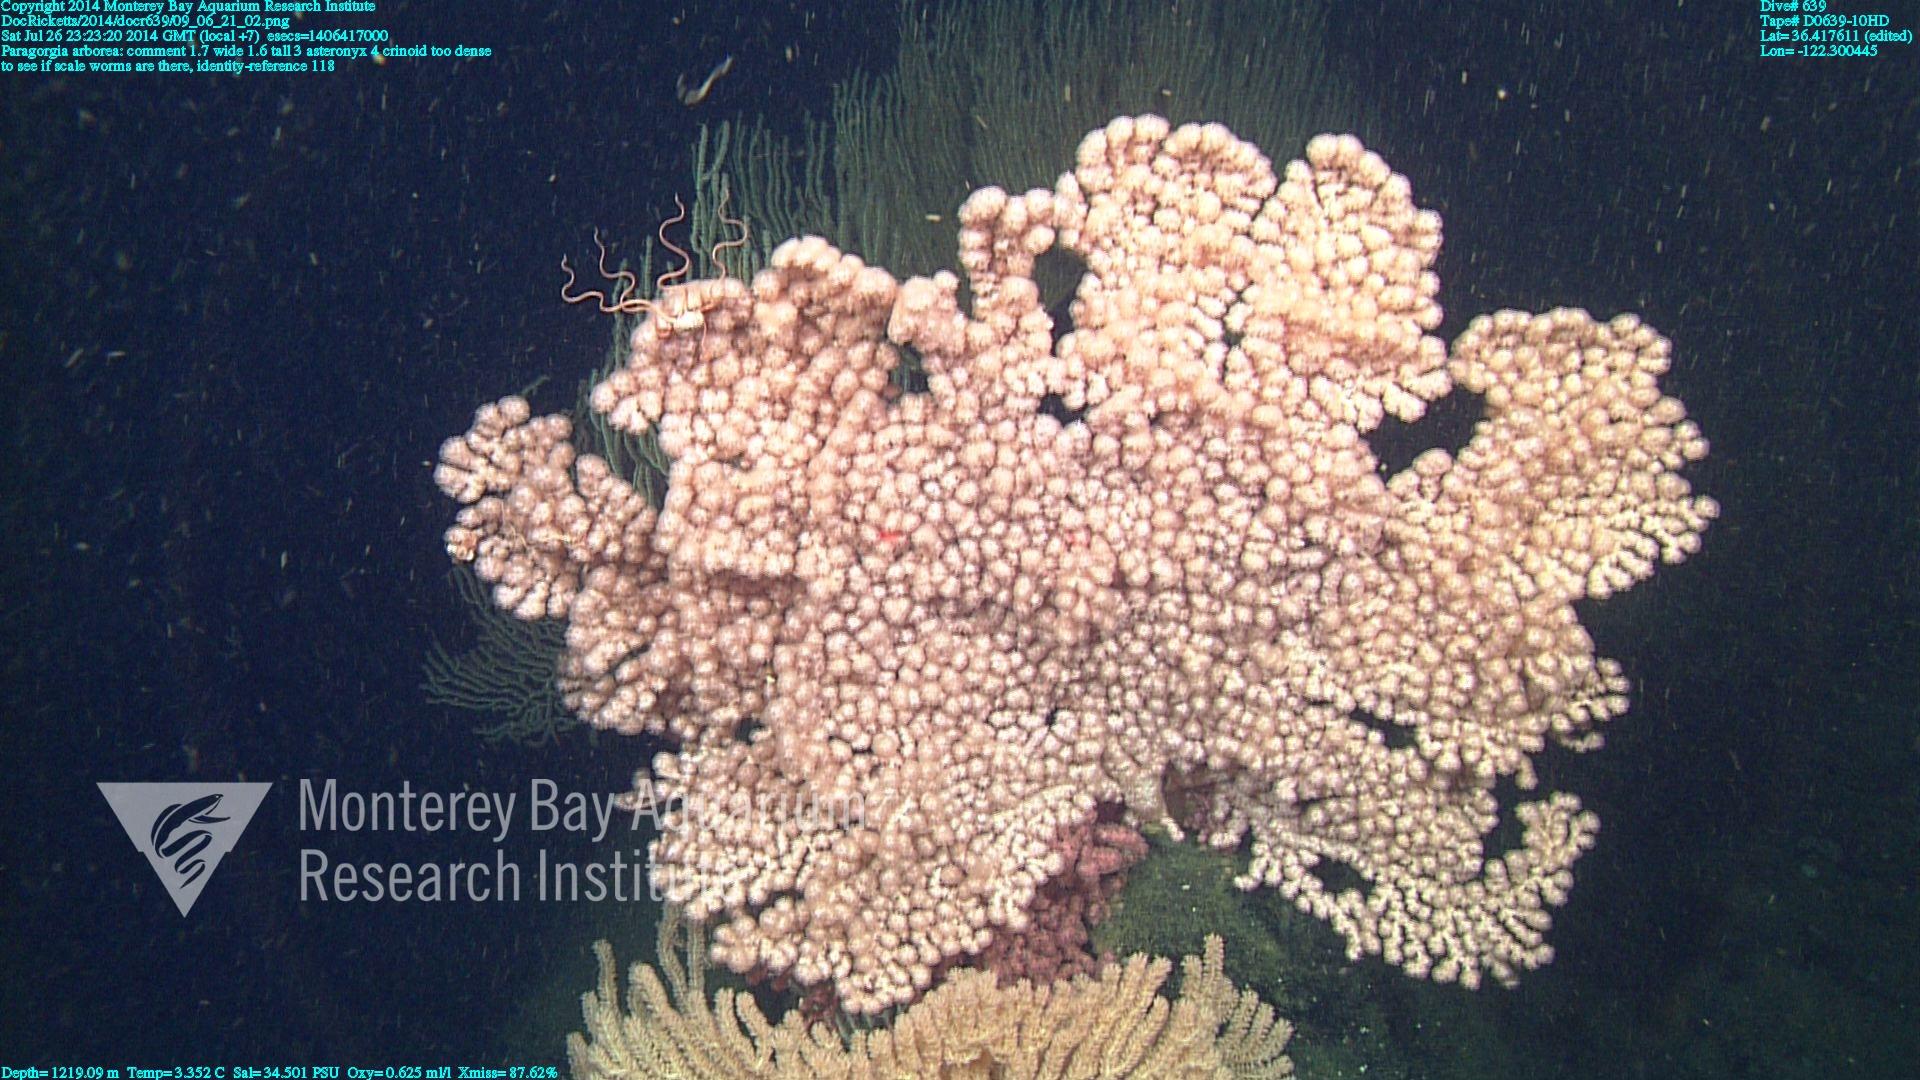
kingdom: Animalia
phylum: Cnidaria
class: Anthozoa
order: Scleralcyonacea
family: Coralliidae
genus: Paragorgia
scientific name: Paragorgia arborea
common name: Bubble gum coral
